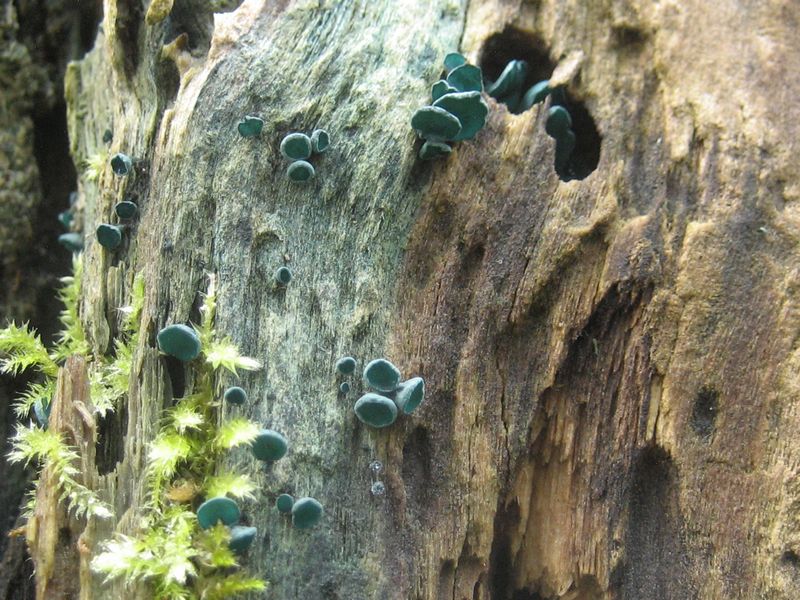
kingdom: Fungi
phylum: Ascomycota
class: Leotiomycetes
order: Helotiales
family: Chlorociboriaceae
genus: Chlorociboria
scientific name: Chlorociboria aeruginascens
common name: almindelig grønskive
